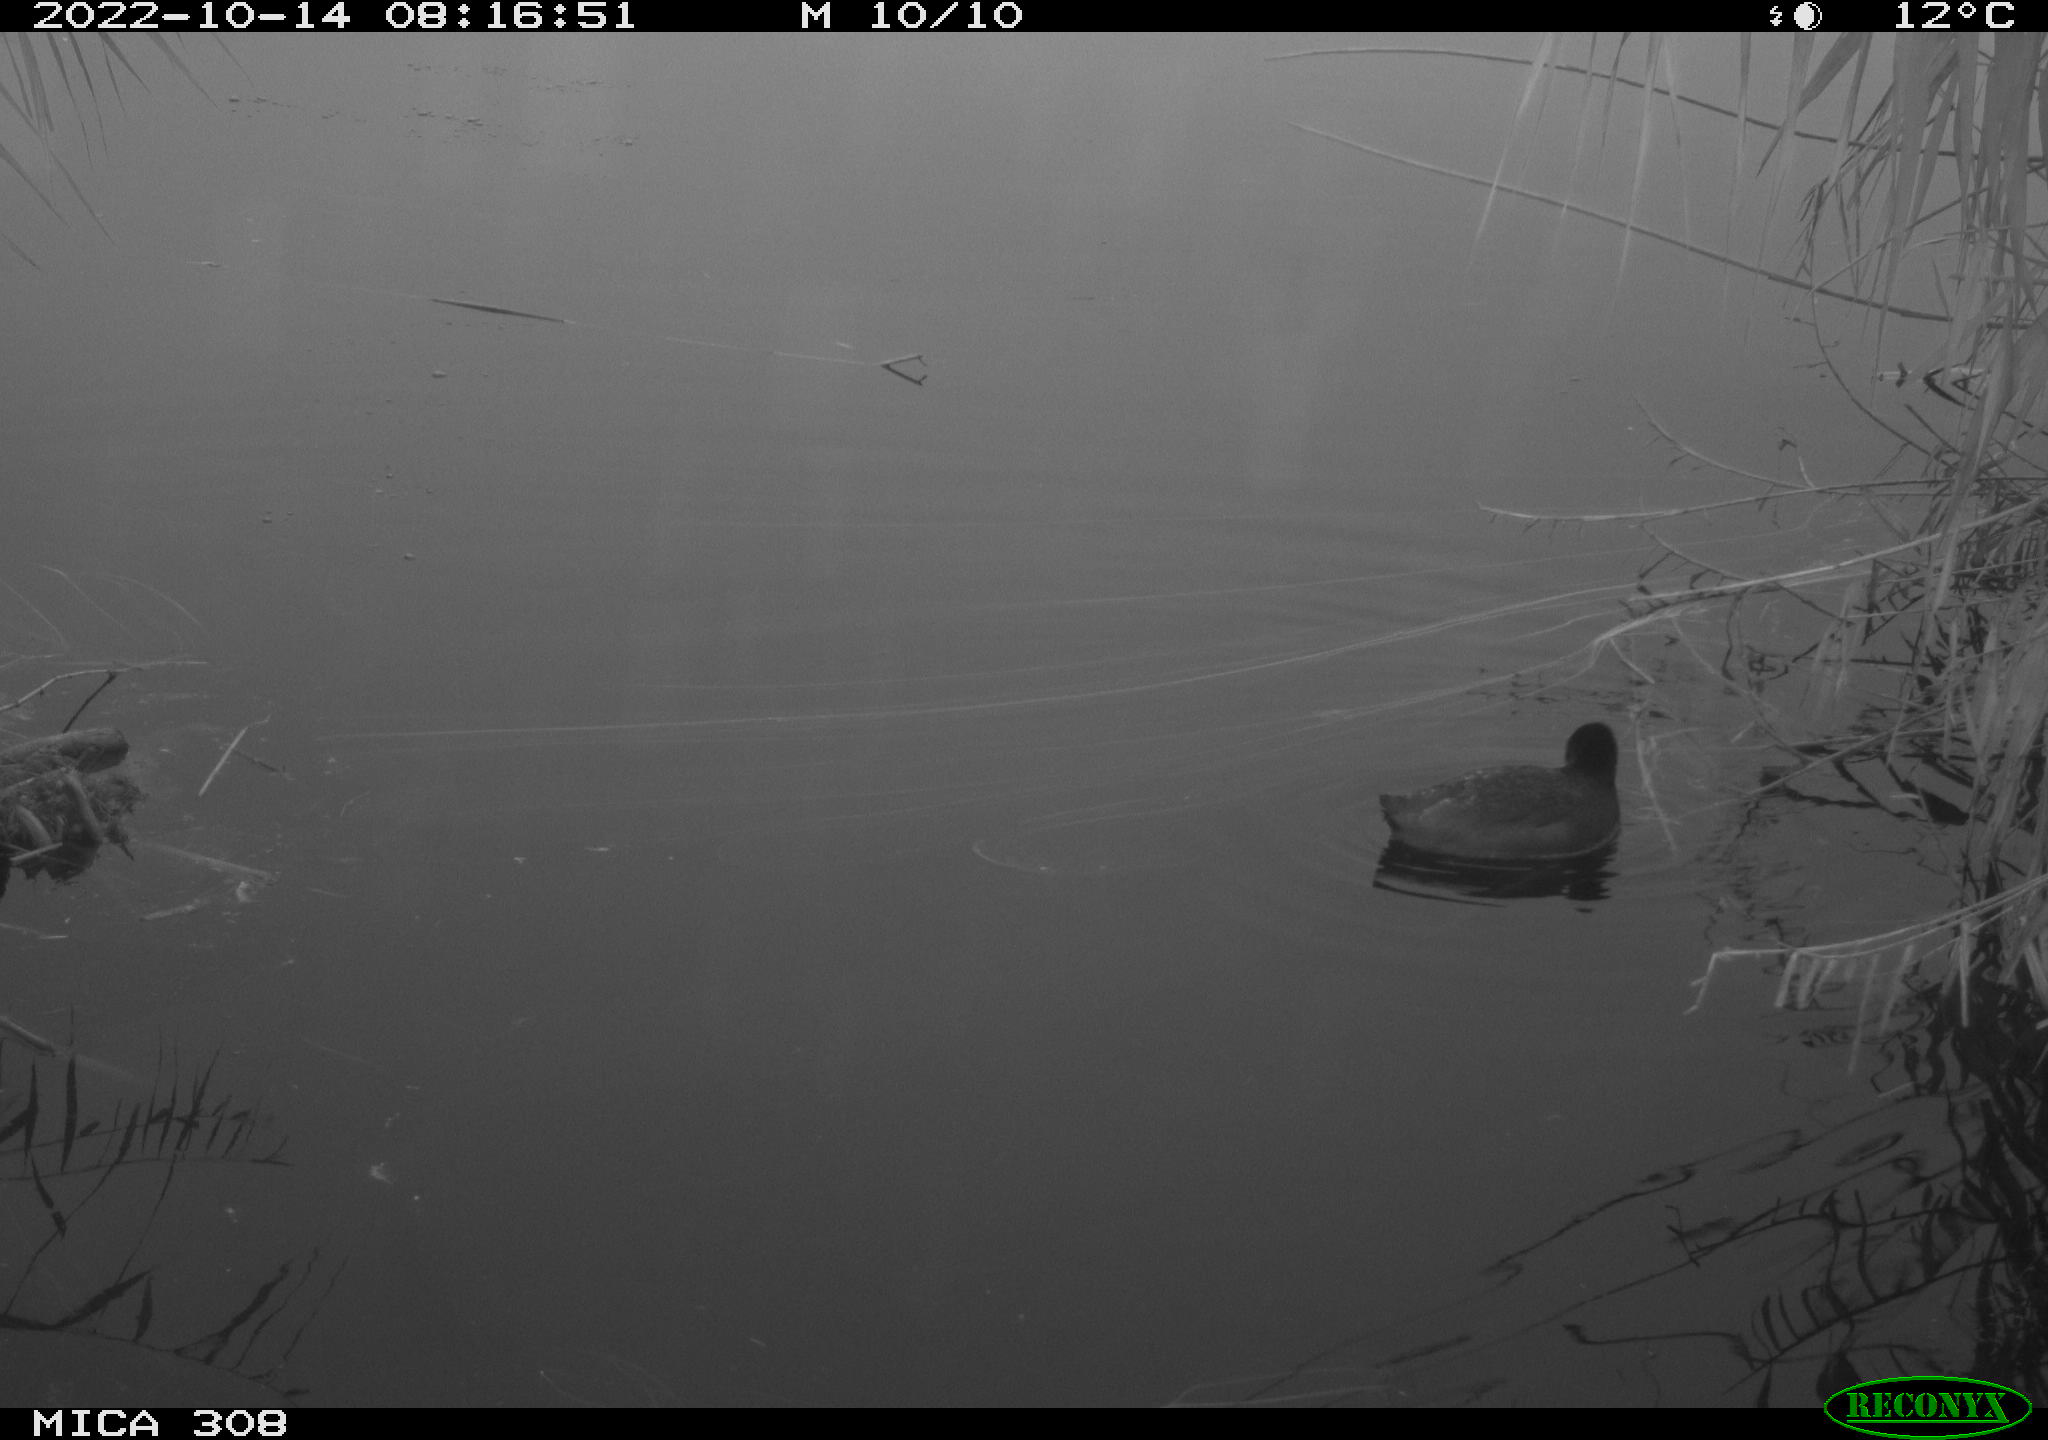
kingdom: Animalia
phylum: Chordata
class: Aves
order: Gruiformes
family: Rallidae
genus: Gallinula
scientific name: Gallinula chloropus
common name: Common moorhen
